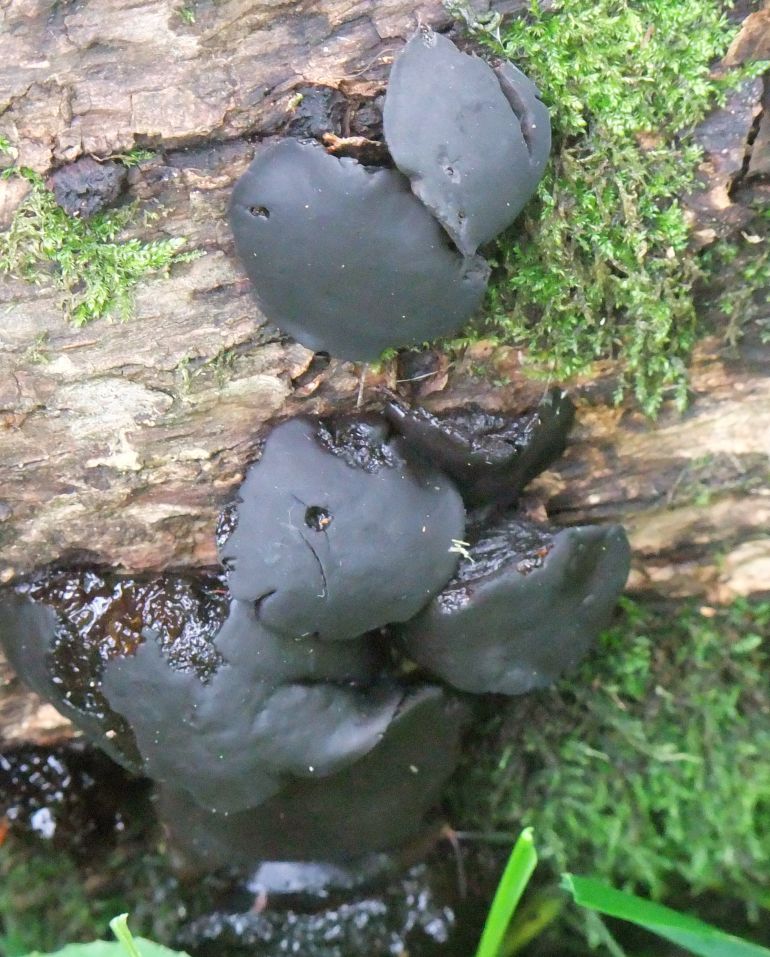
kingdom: Fungi
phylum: Ascomycota
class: Leotiomycetes
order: Phacidiales
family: Phacidiaceae
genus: Bulgaria
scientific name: Bulgaria inquinans
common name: afsmittende topsvamp
